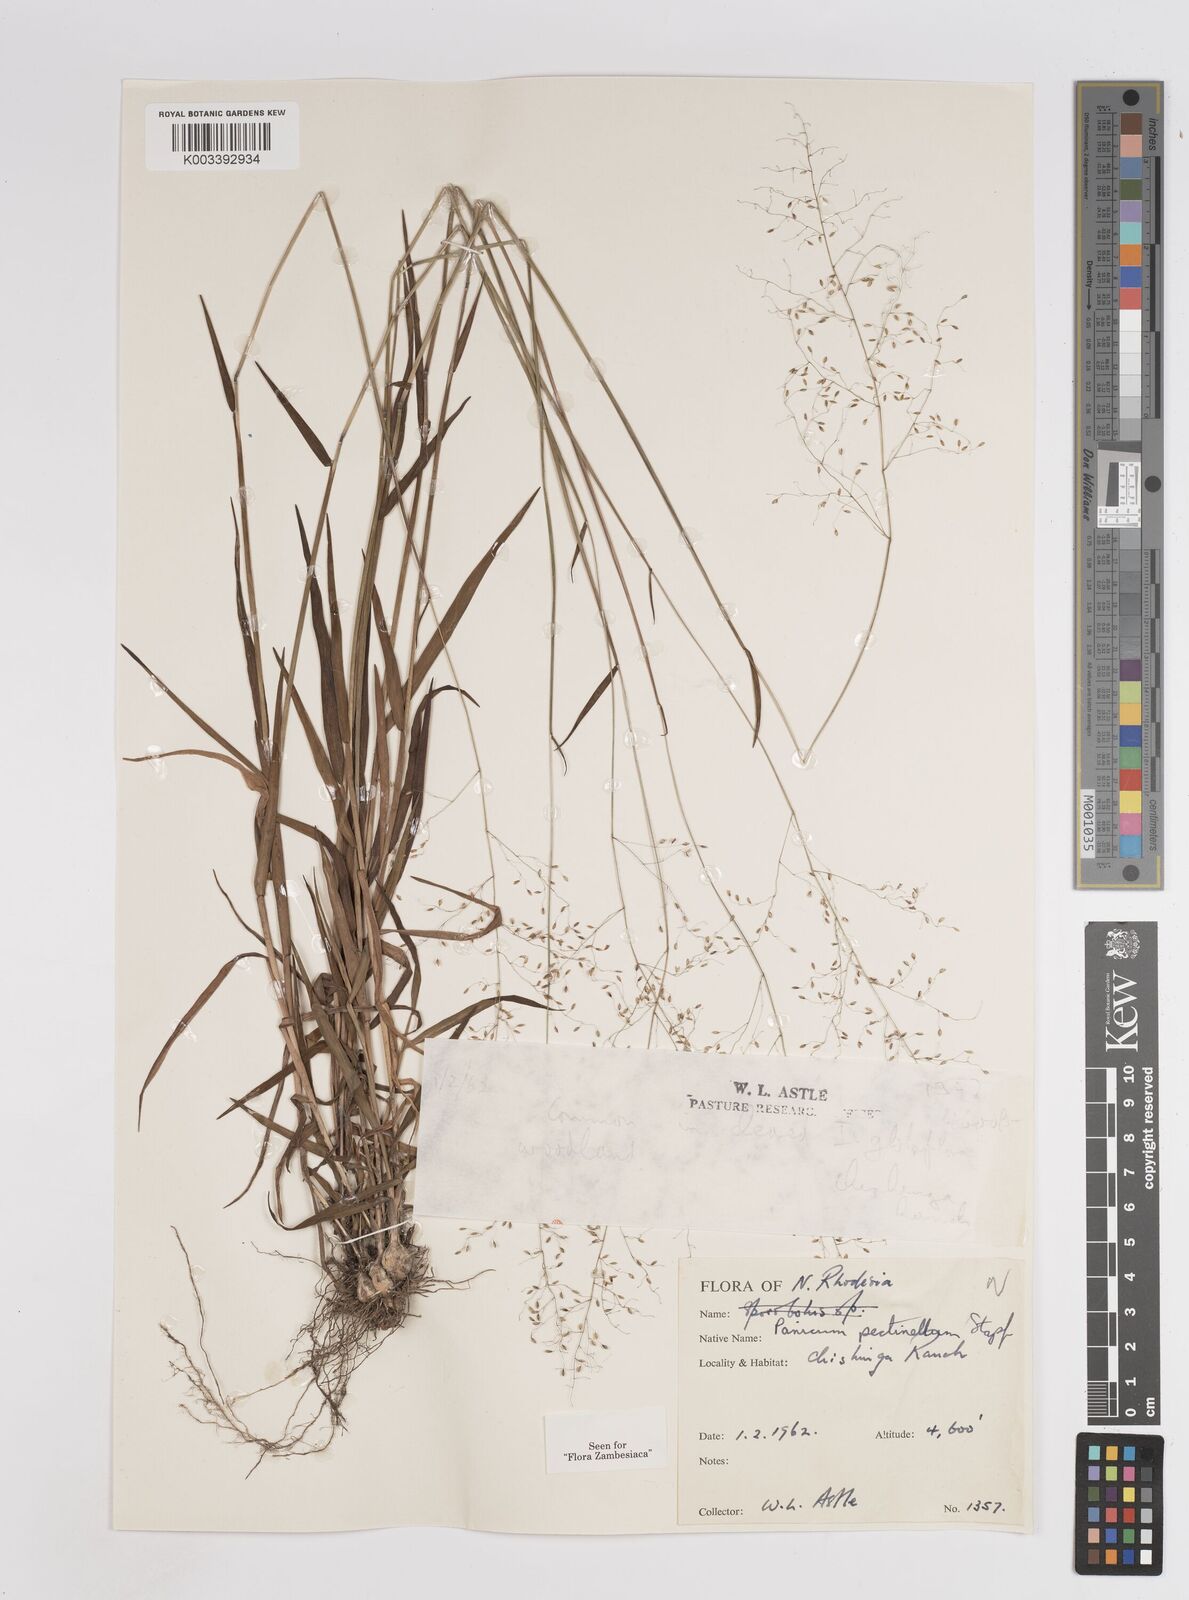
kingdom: Plantae
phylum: Tracheophyta
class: Liliopsida
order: Poales
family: Poaceae
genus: Adenochloa
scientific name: Adenochloa pectinella
